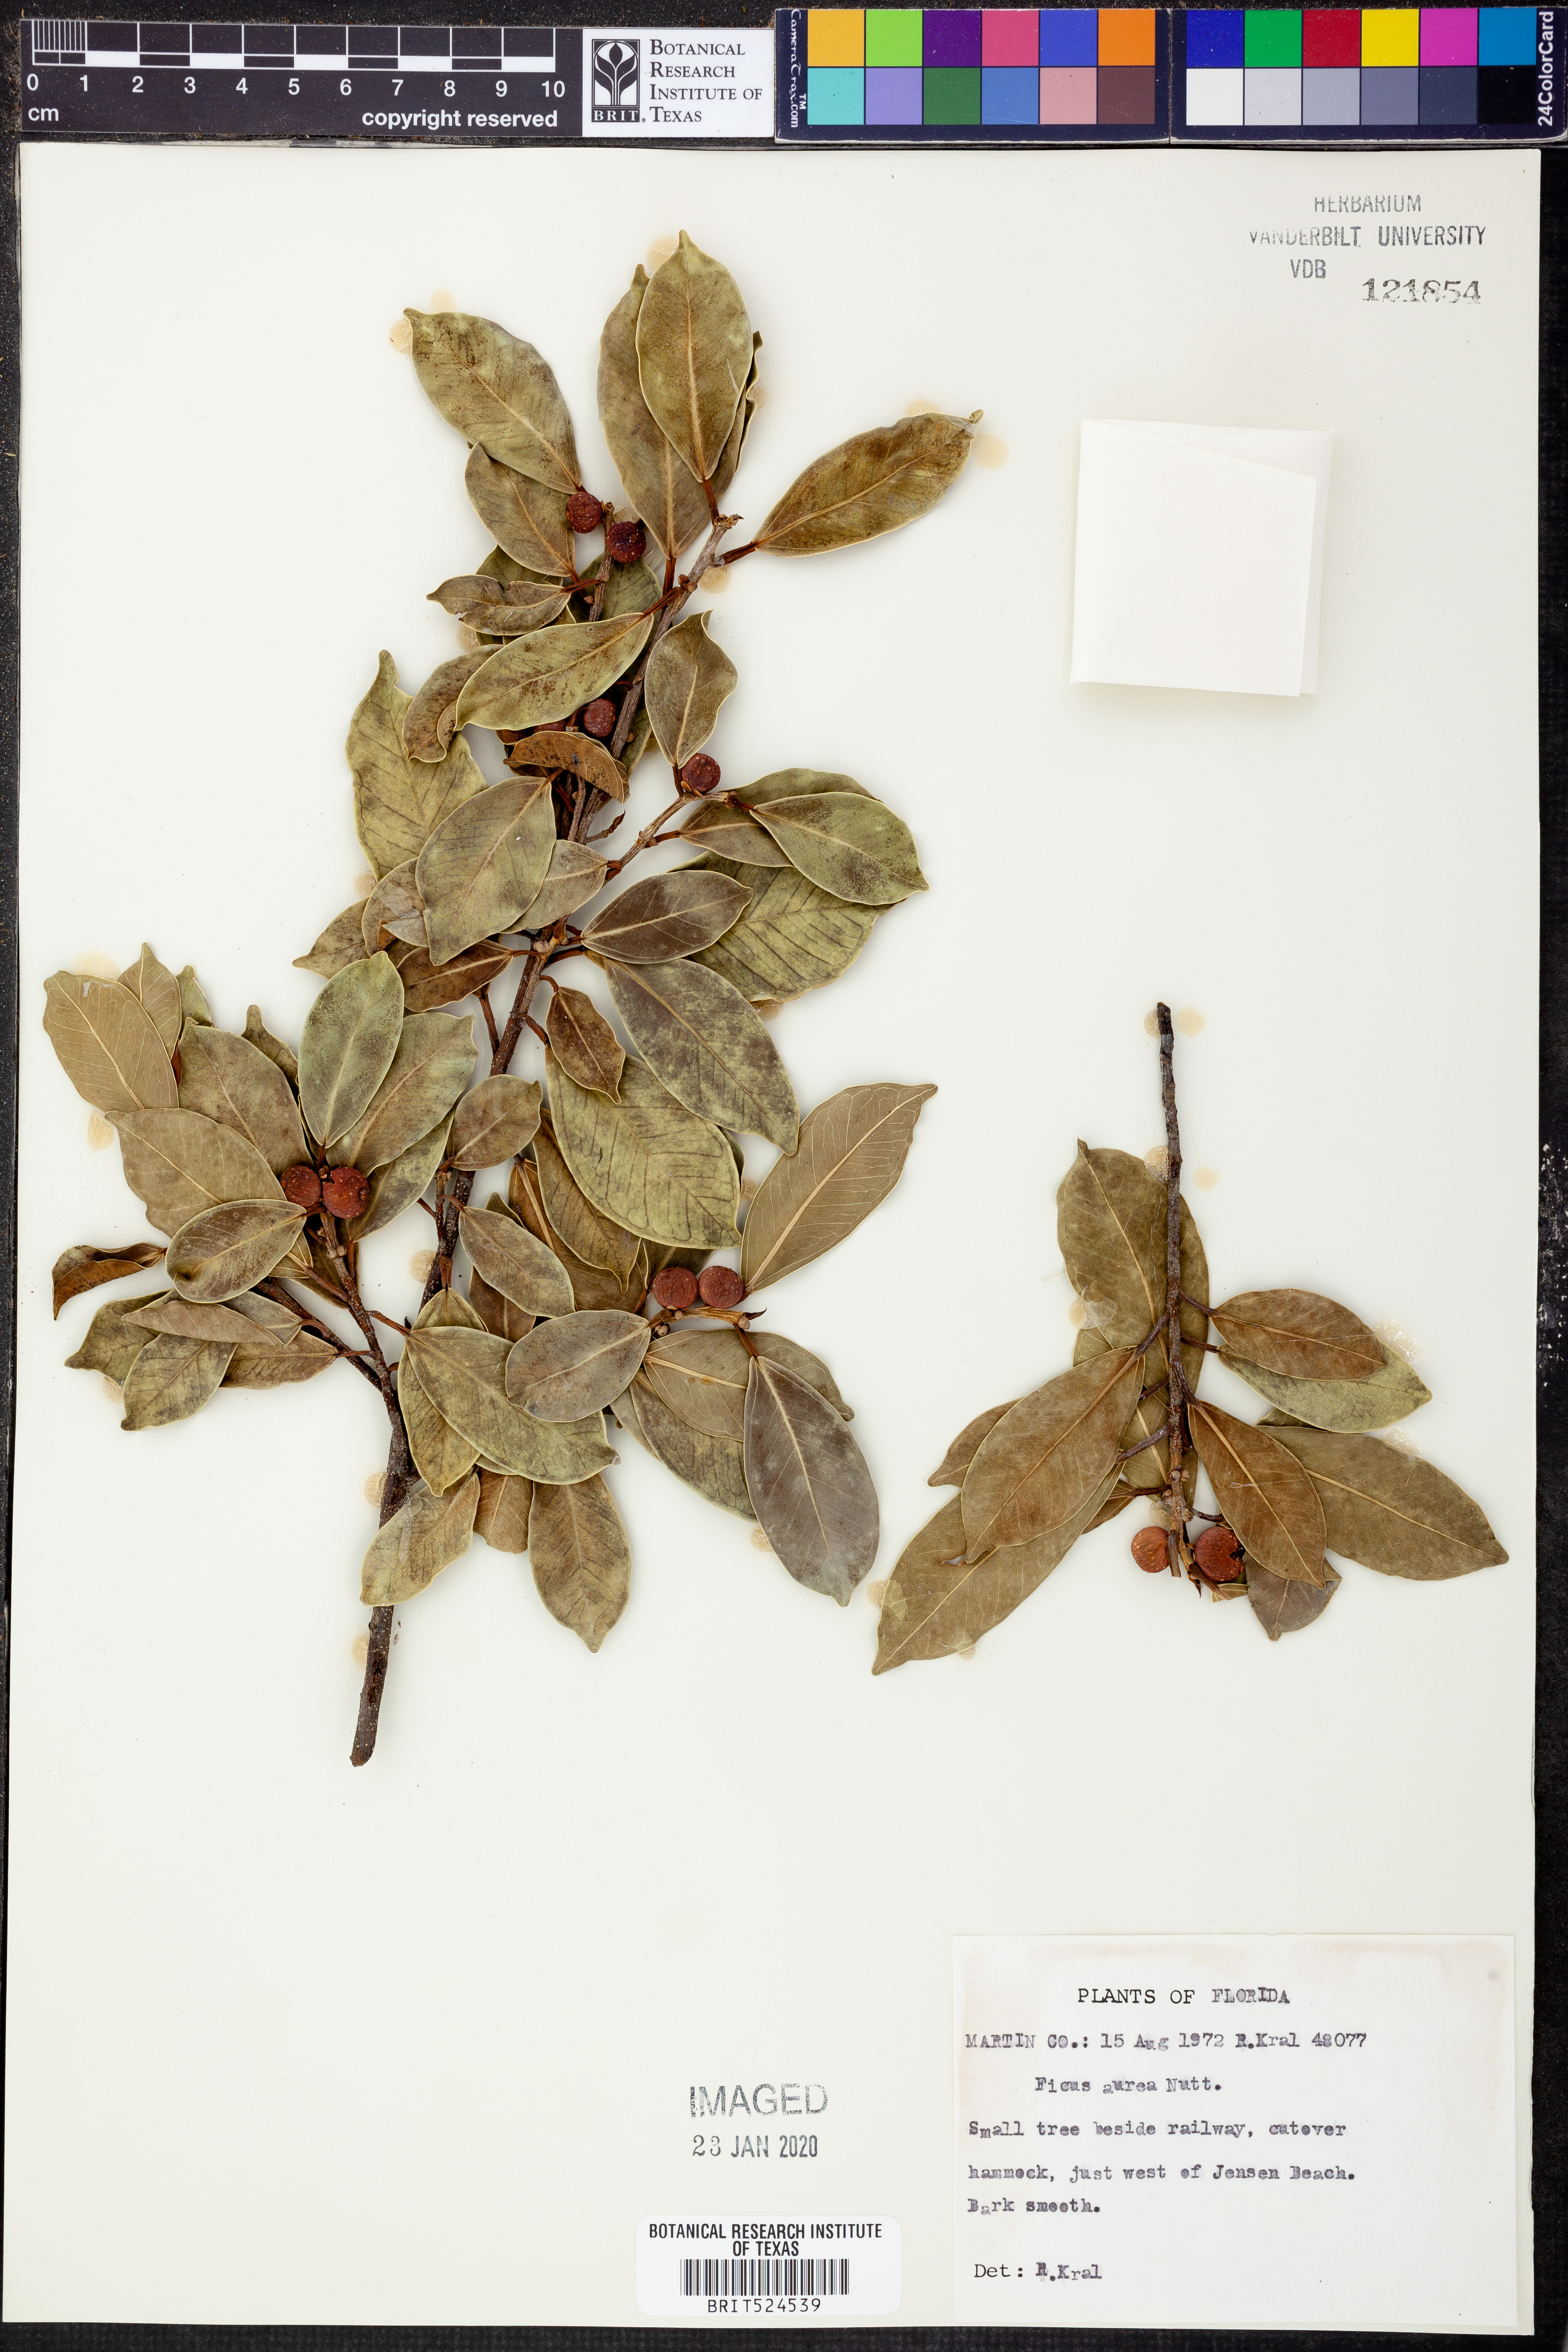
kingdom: Plantae
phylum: Tracheophyta
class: Magnoliopsida
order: Rosales
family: Moraceae
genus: Ficus
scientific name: Ficus aurea
